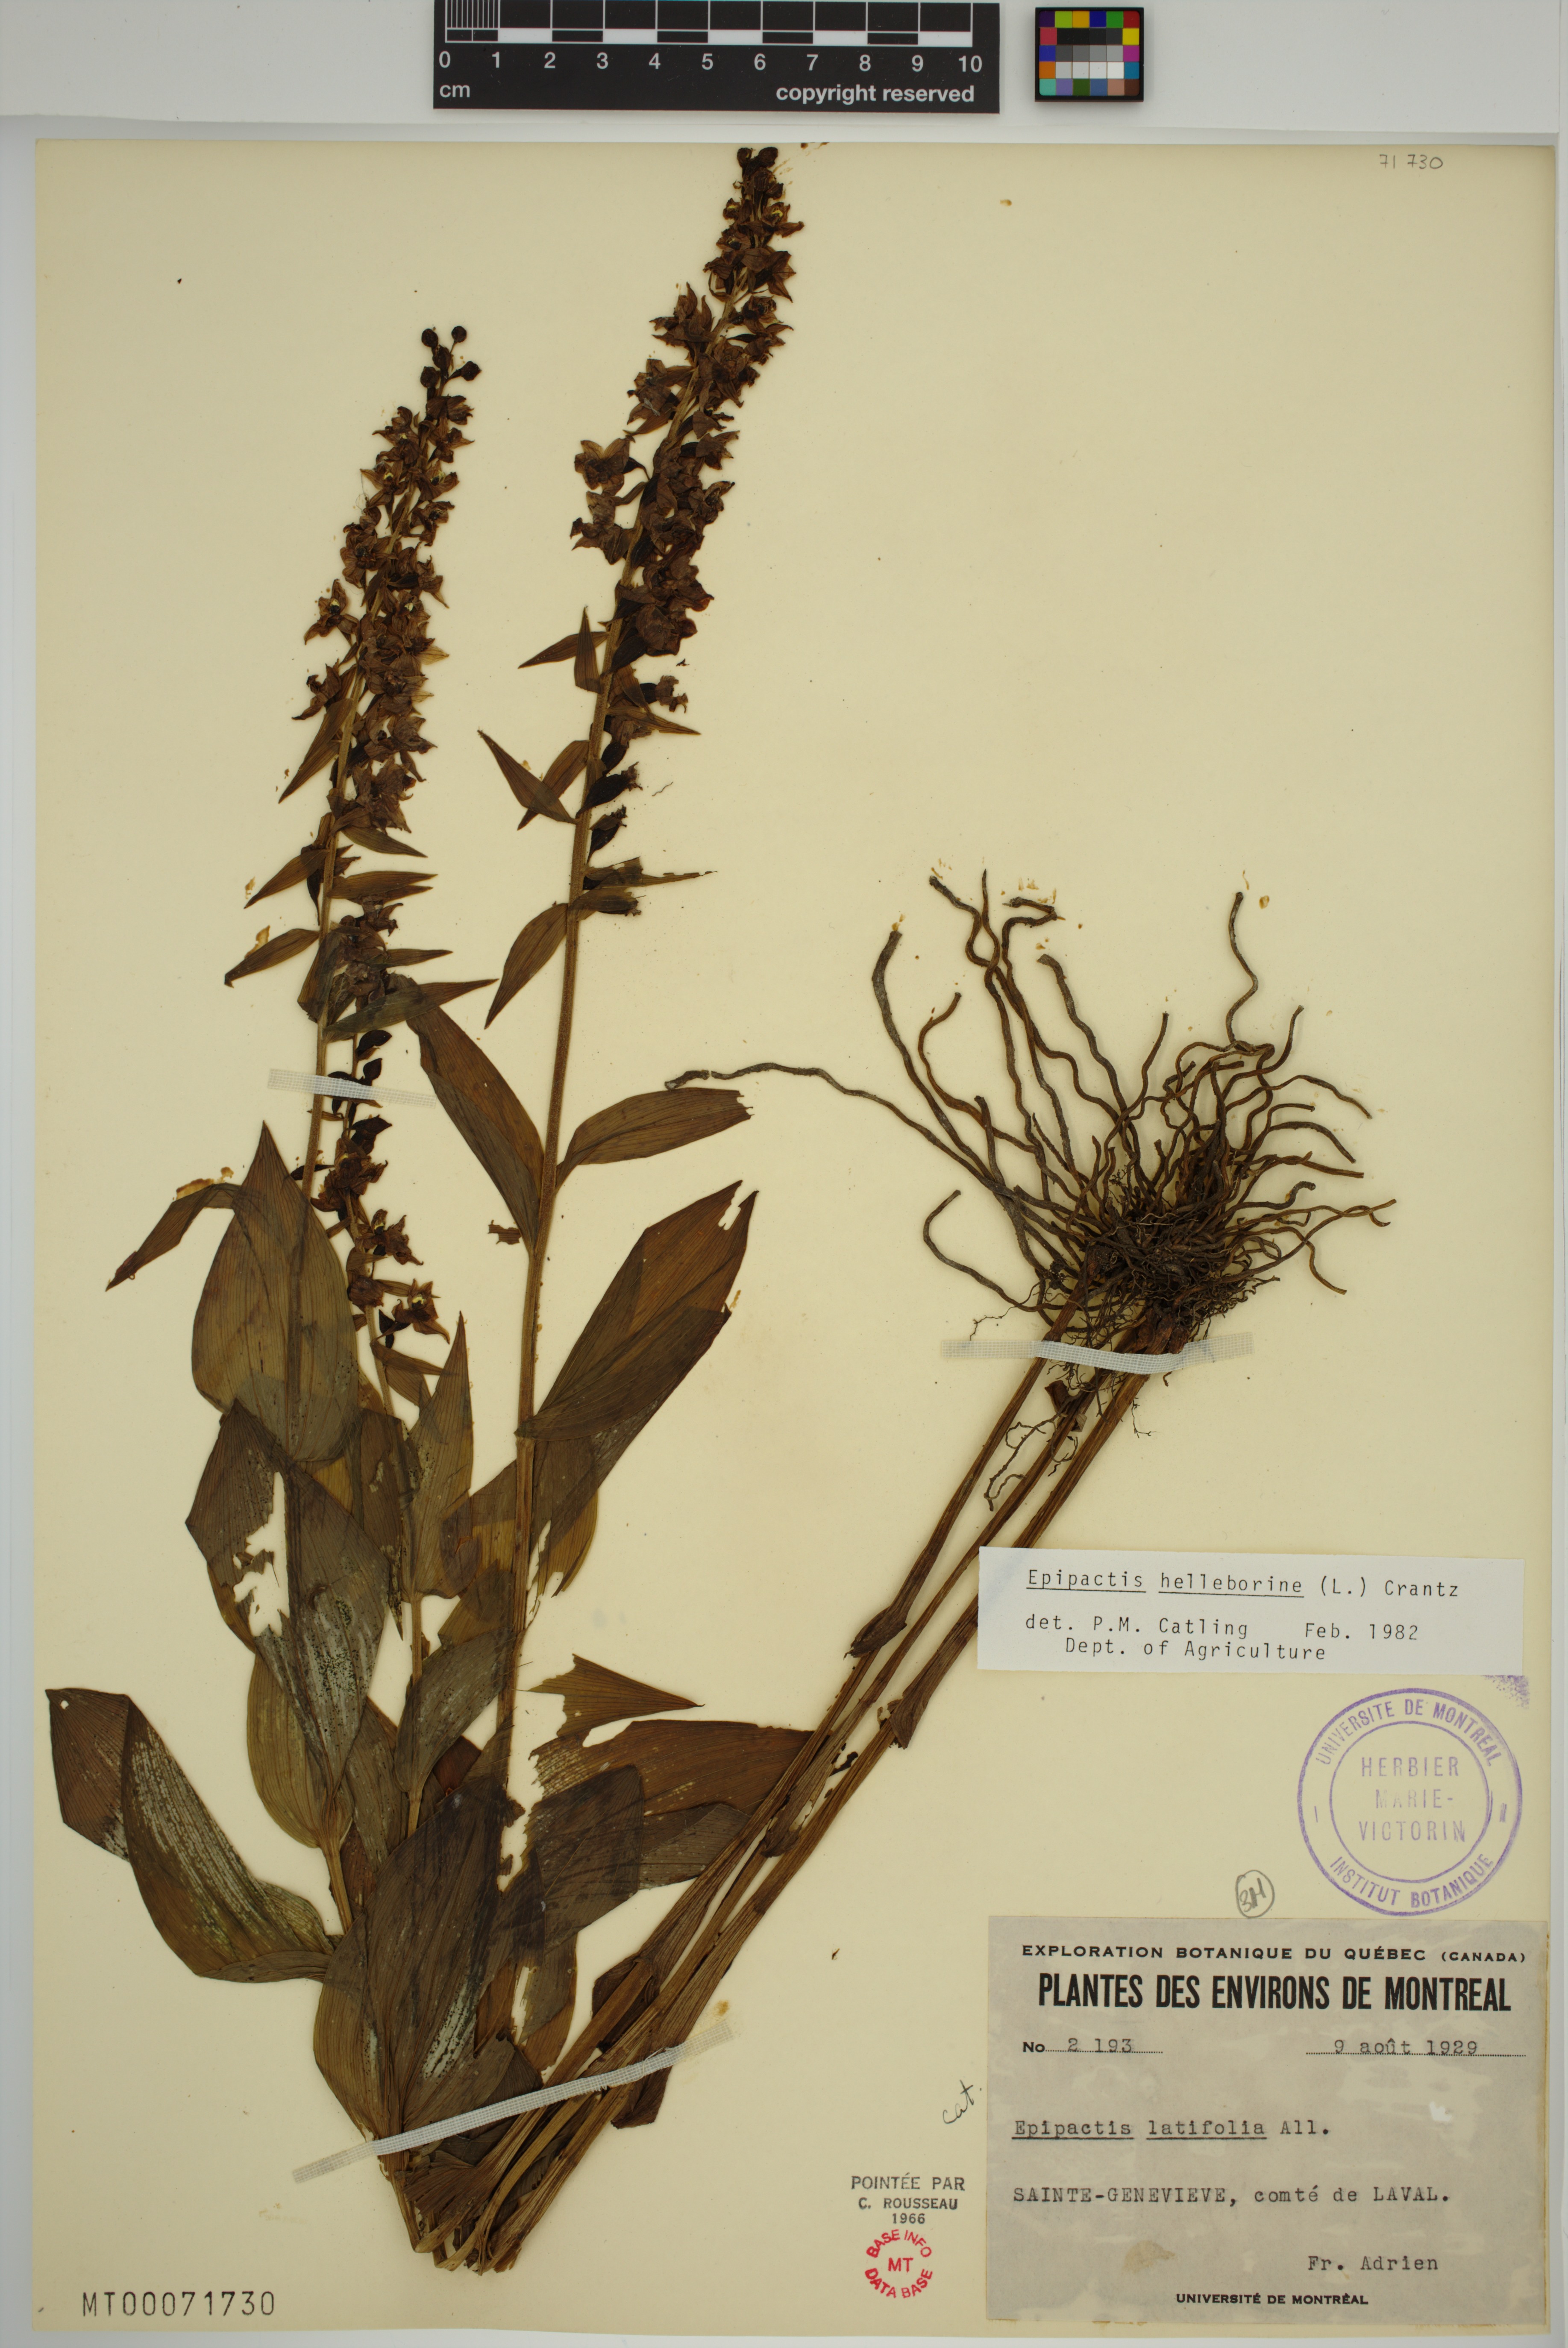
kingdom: Plantae
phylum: Tracheophyta
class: Liliopsida
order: Asparagales
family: Orchidaceae
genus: Epipactis
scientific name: Epipactis helleborine
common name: Broad-leaved helleborine
